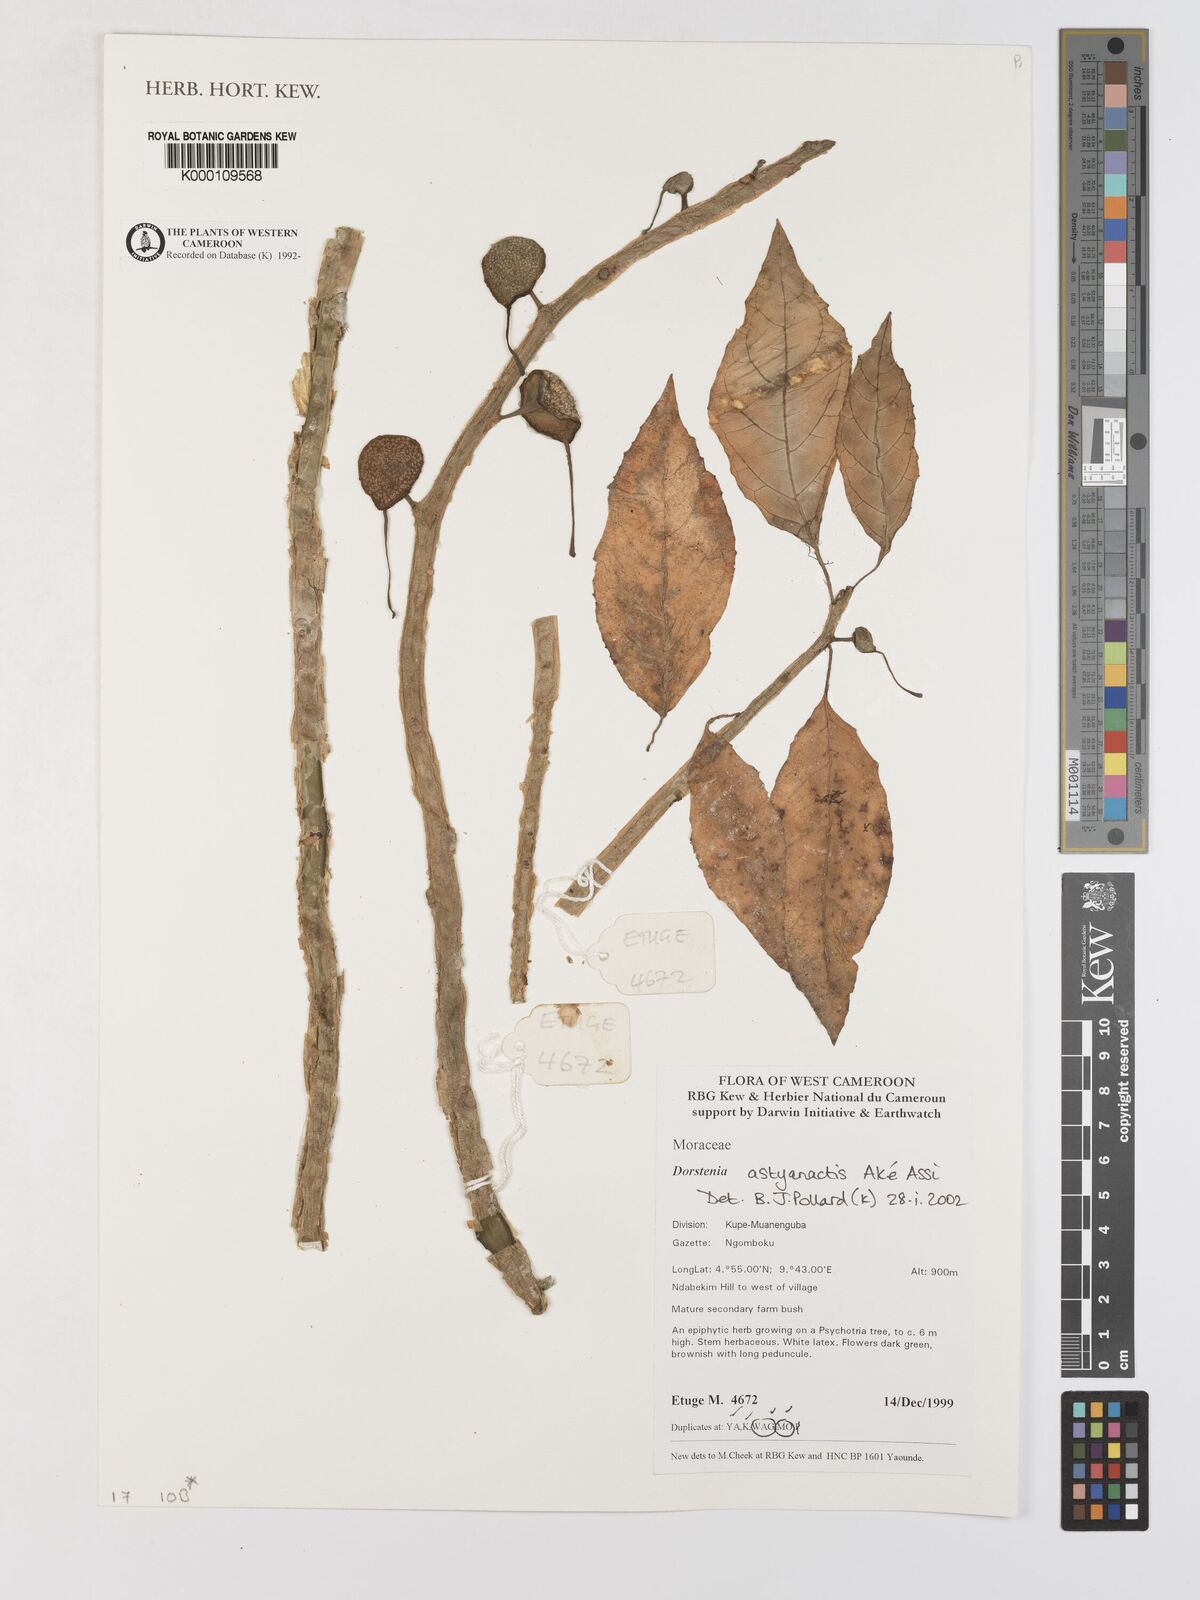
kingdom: Plantae
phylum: Tracheophyta
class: Magnoliopsida
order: Rosales
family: Moraceae
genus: Dorstenia
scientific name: Dorstenia
